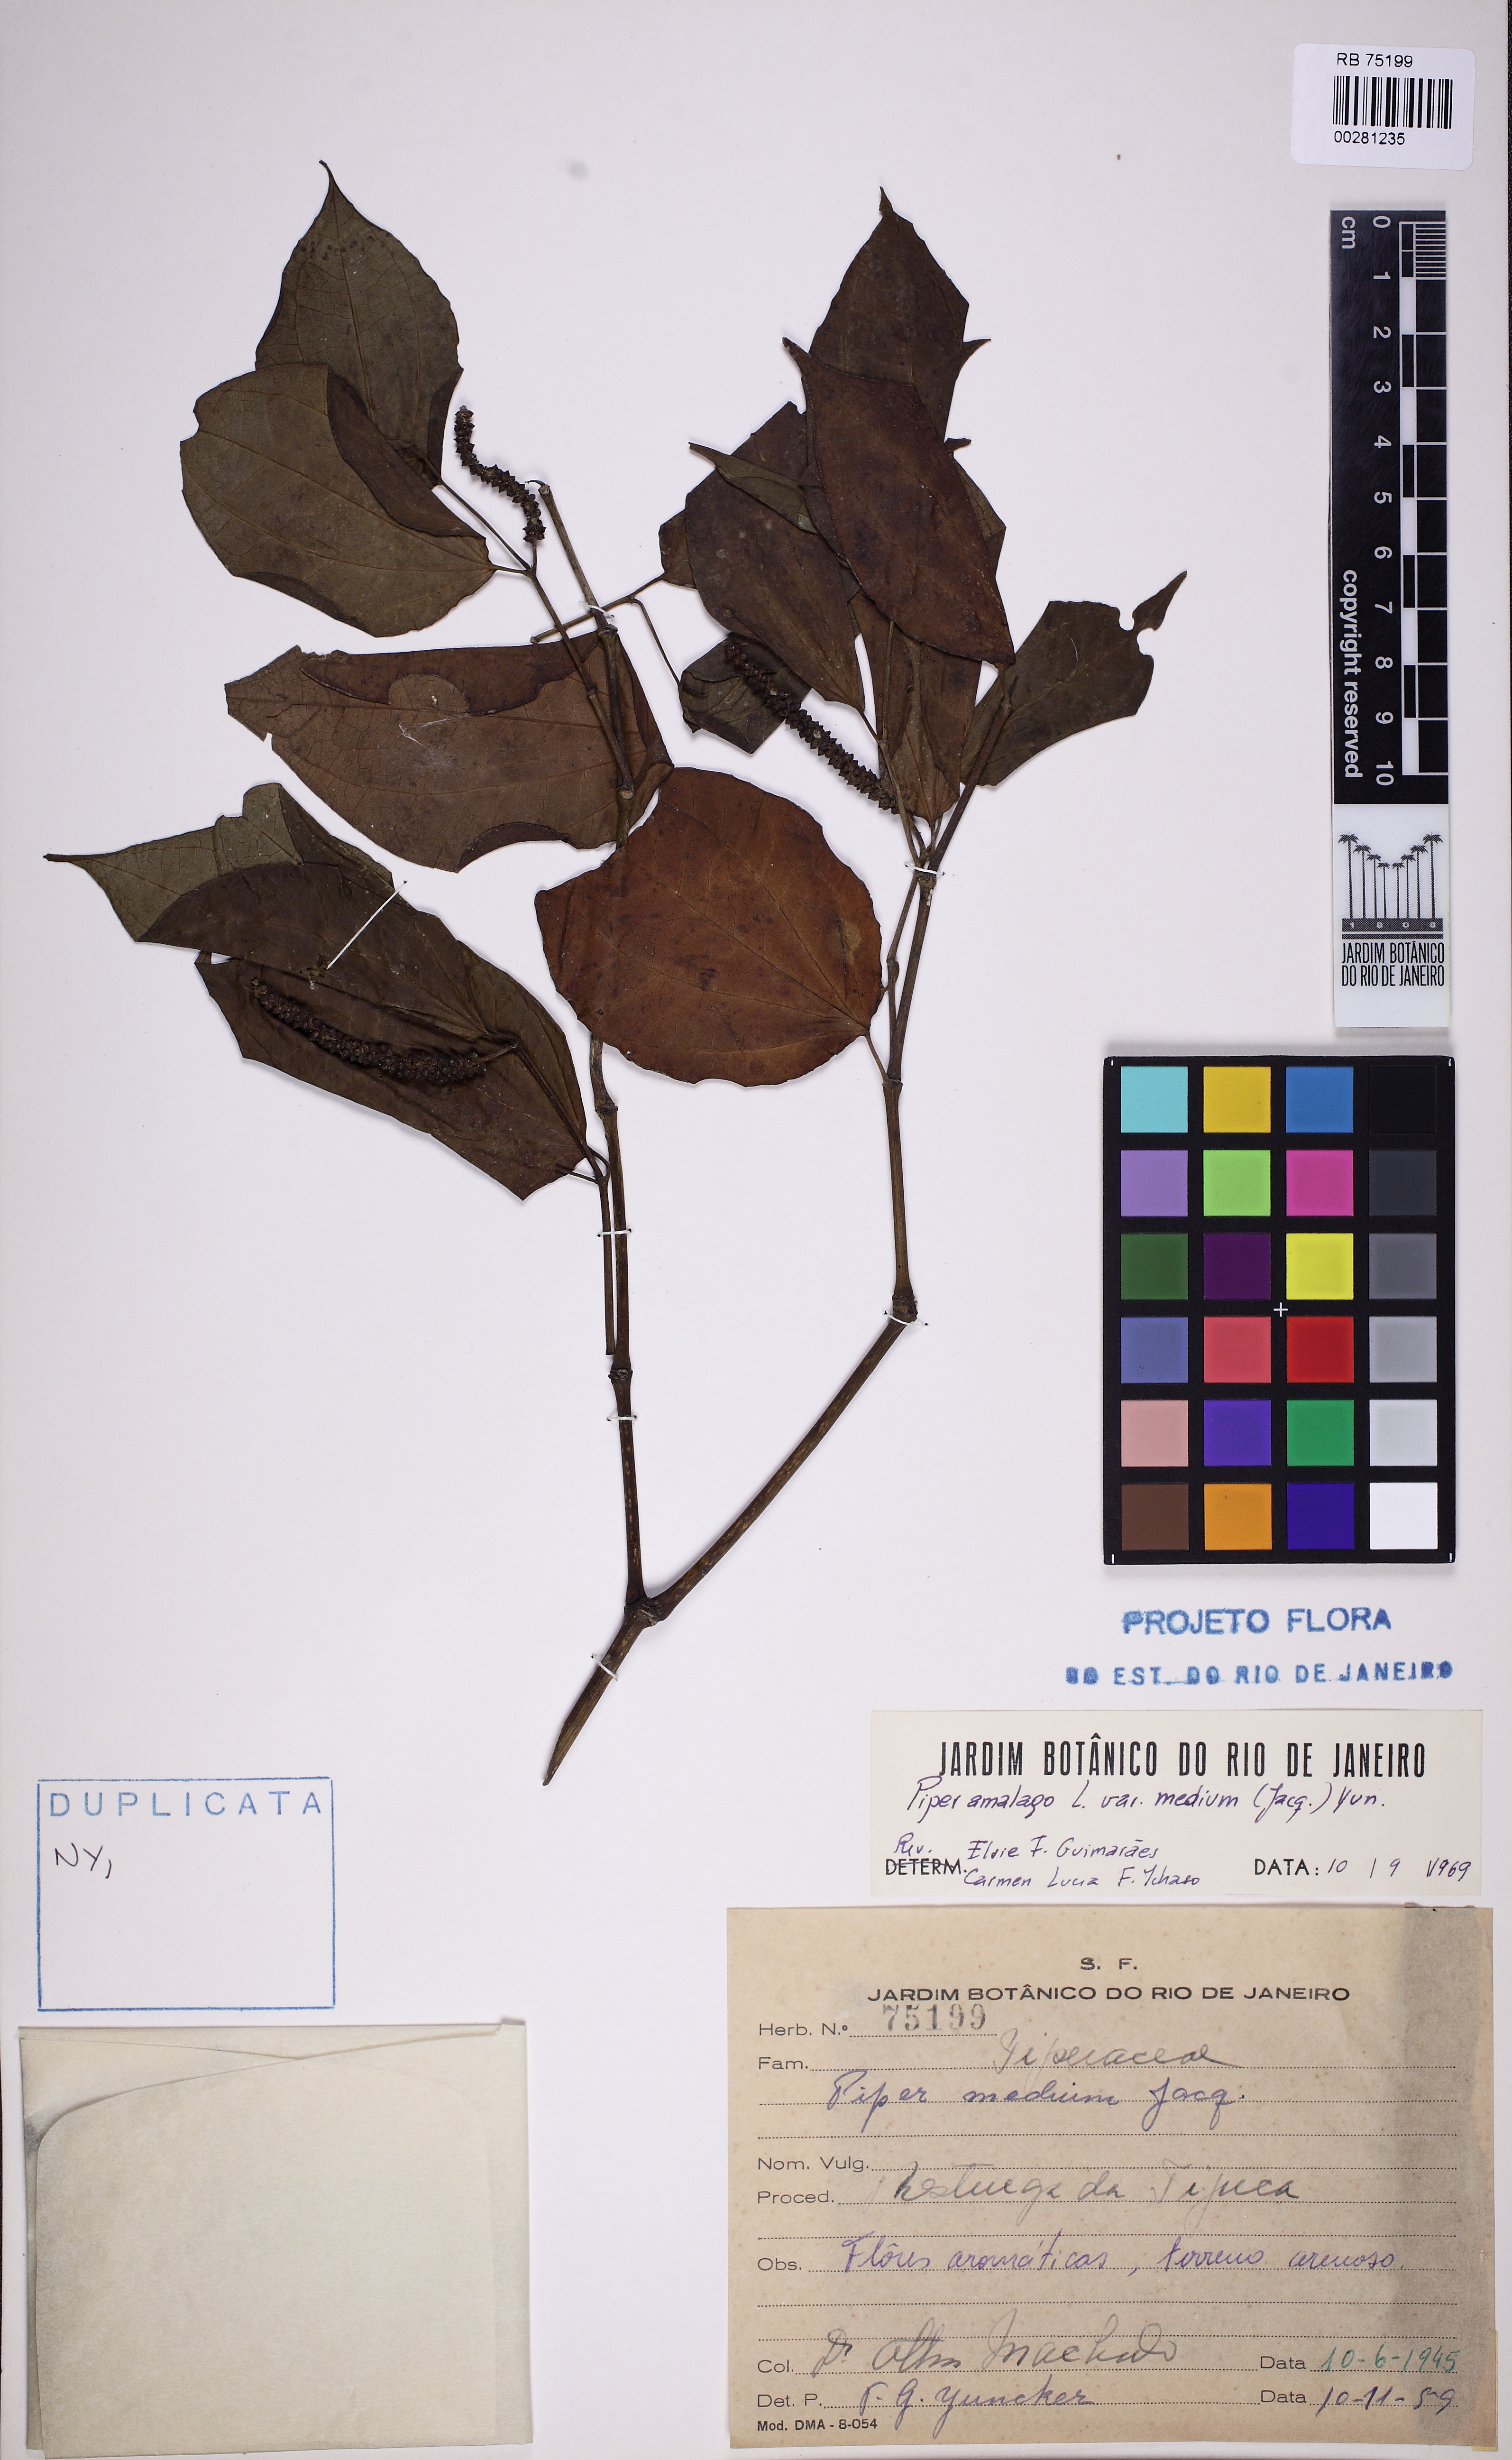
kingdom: Plantae
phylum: Tracheophyta
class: Magnoliopsida
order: Piperales
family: Piperaceae
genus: Piper
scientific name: Piper amalago
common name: Pepper-elder
